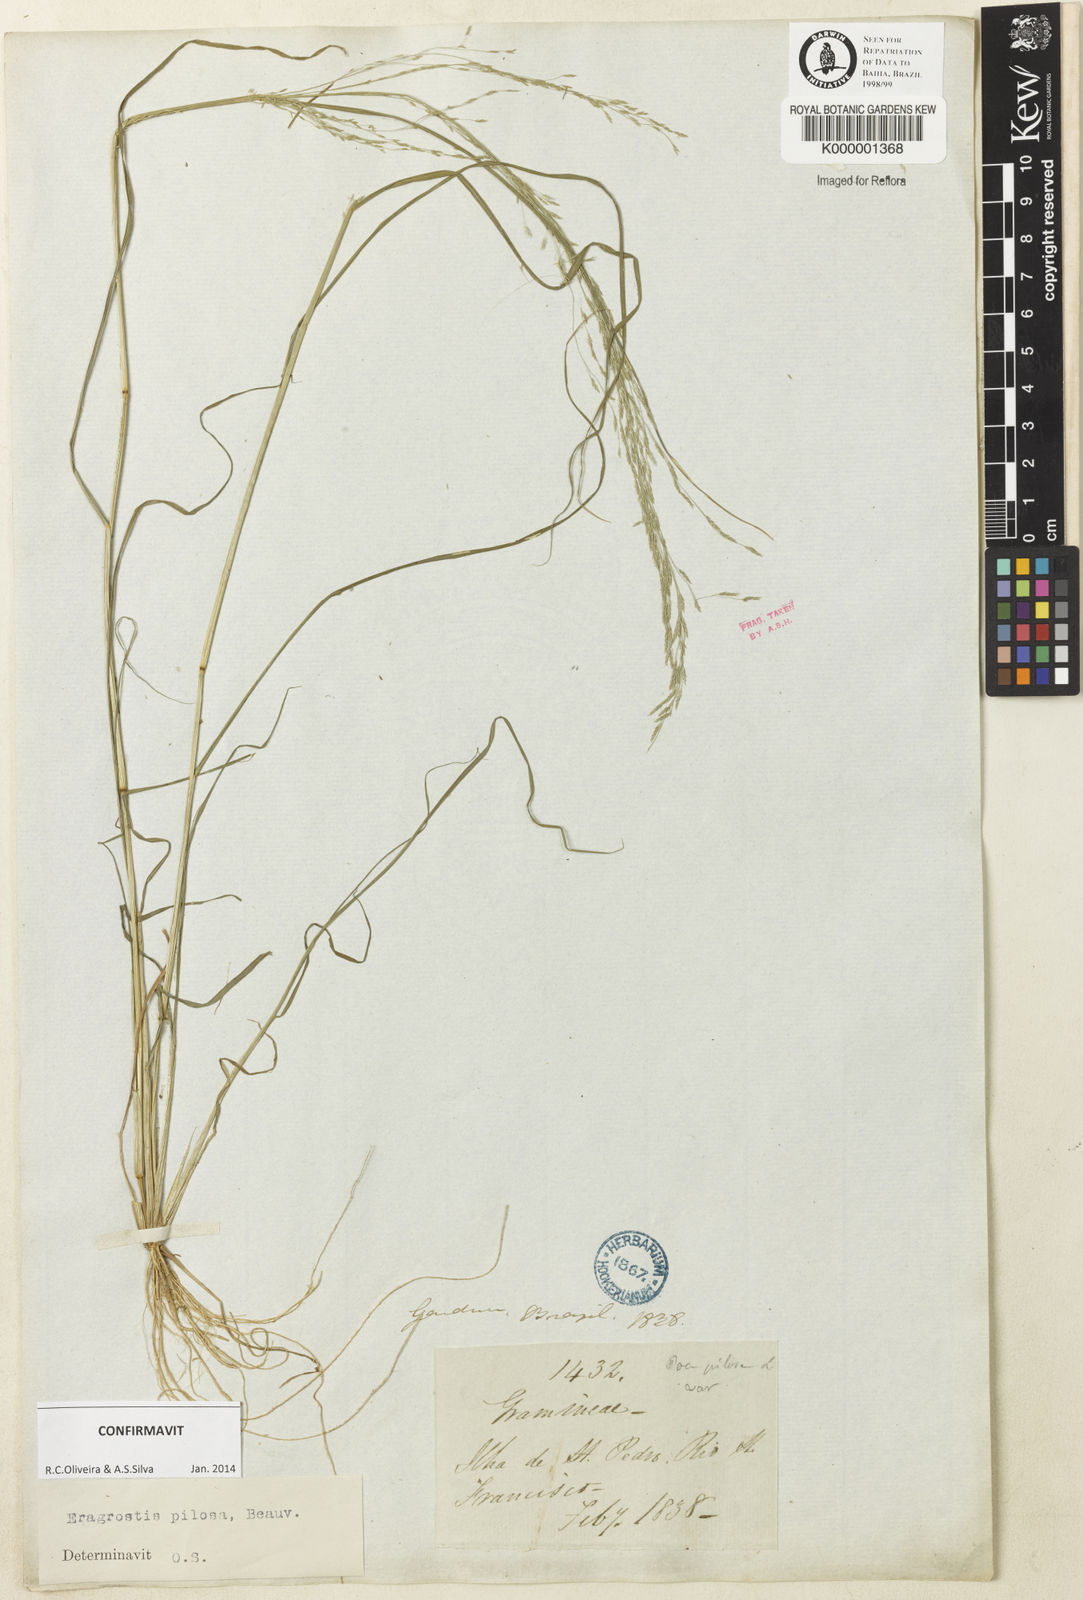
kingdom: Plantae
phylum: Tracheophyta
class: Liliopsida
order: Poales
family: Poaceae
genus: Eragrostis
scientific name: Eragrostis pilosa
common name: Indian lovegrass
